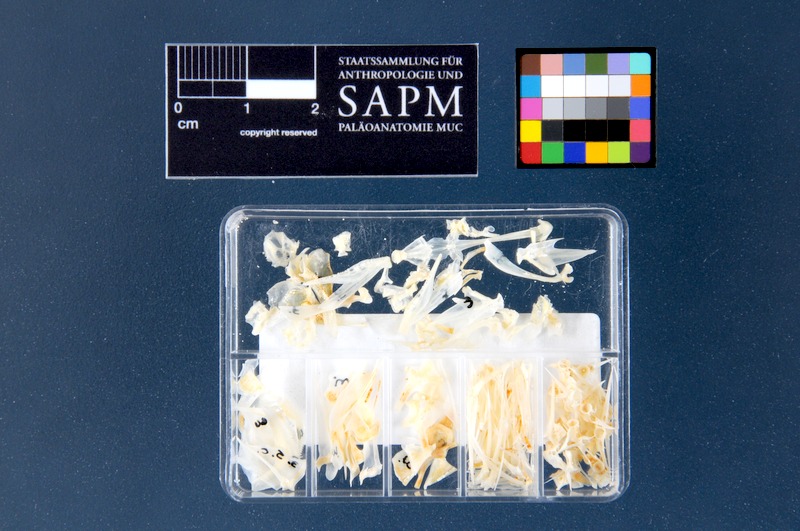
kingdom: Animalia
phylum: Chordata
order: Perciformes
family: Serranidae
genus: Serranus
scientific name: Serranus cabrilla
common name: Comber
